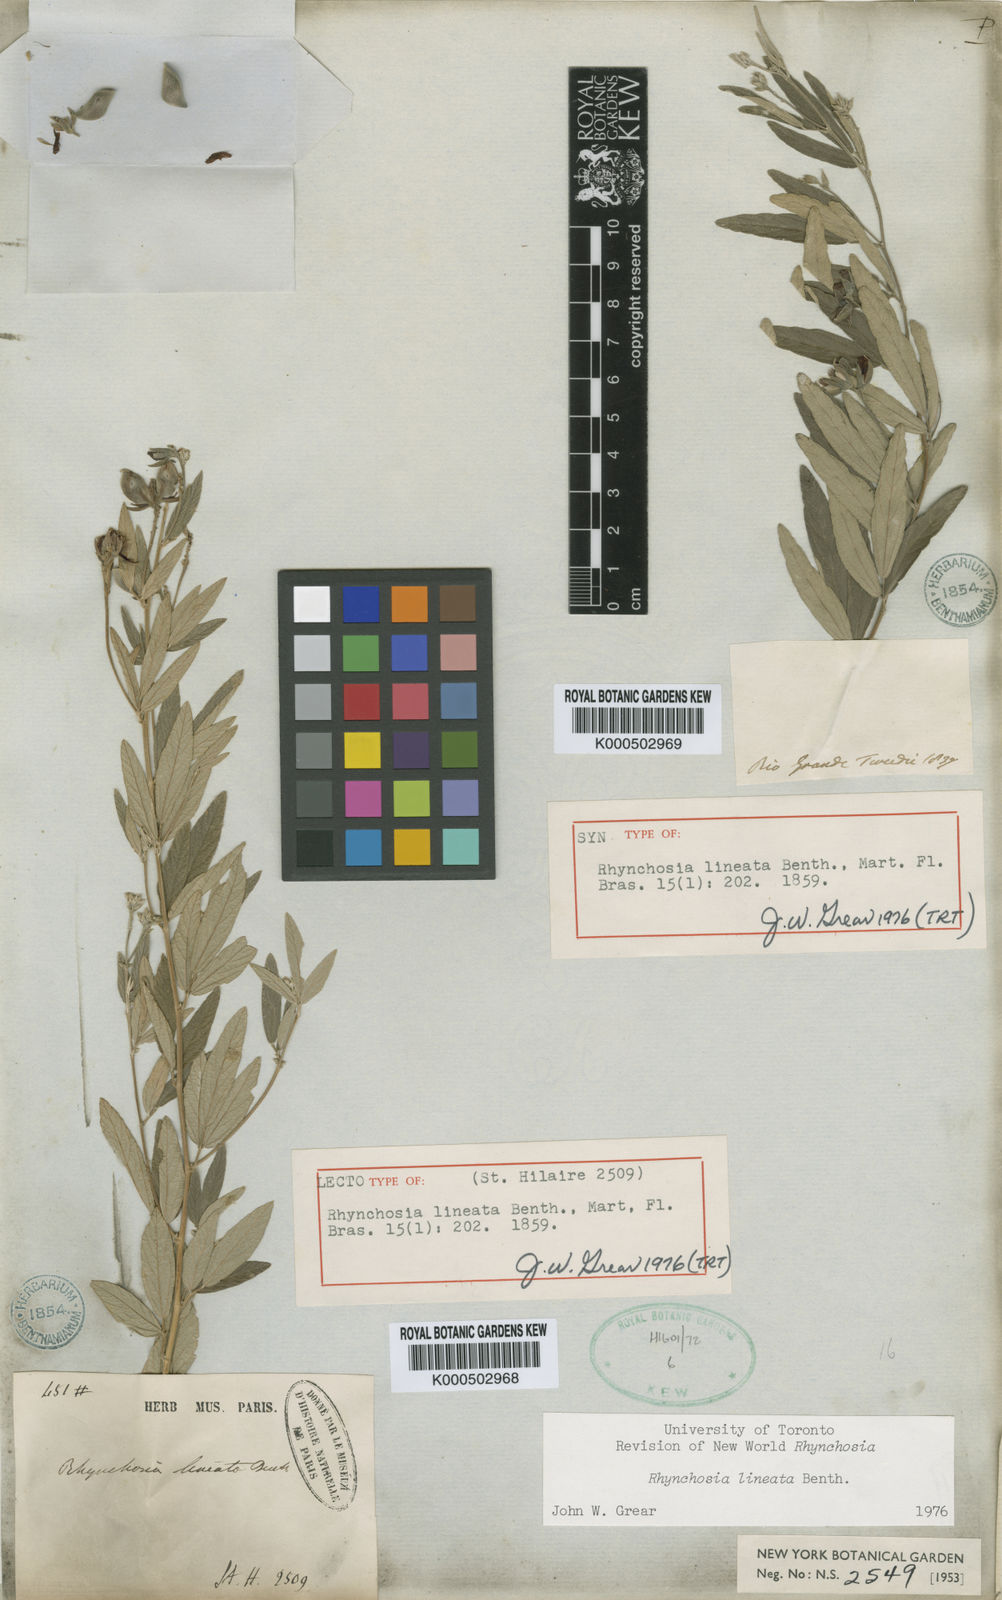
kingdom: Plantae
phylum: Tracheophyta
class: Magnoliopsida
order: Fabales
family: Fabaceae
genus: Rhynchosia
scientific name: Rhynchosia lineata
